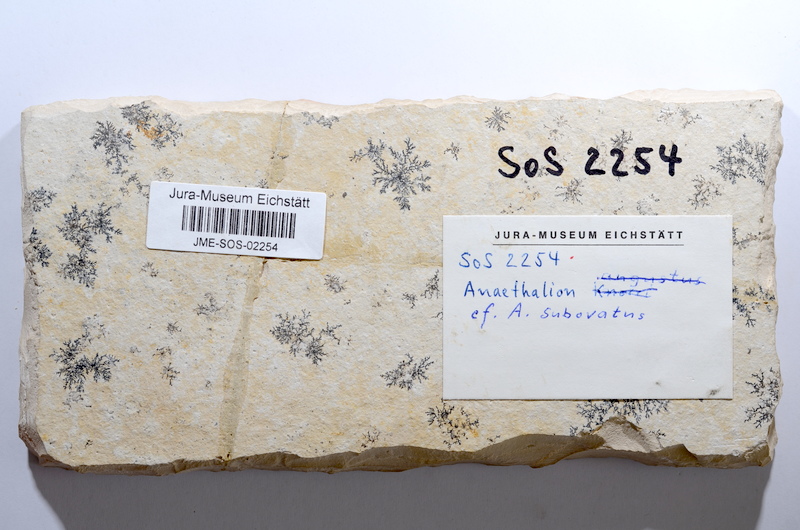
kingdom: Animalia
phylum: Chordata
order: Elopiformes
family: Anaethalionidae
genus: Anaethalion
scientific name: Anaethalion
